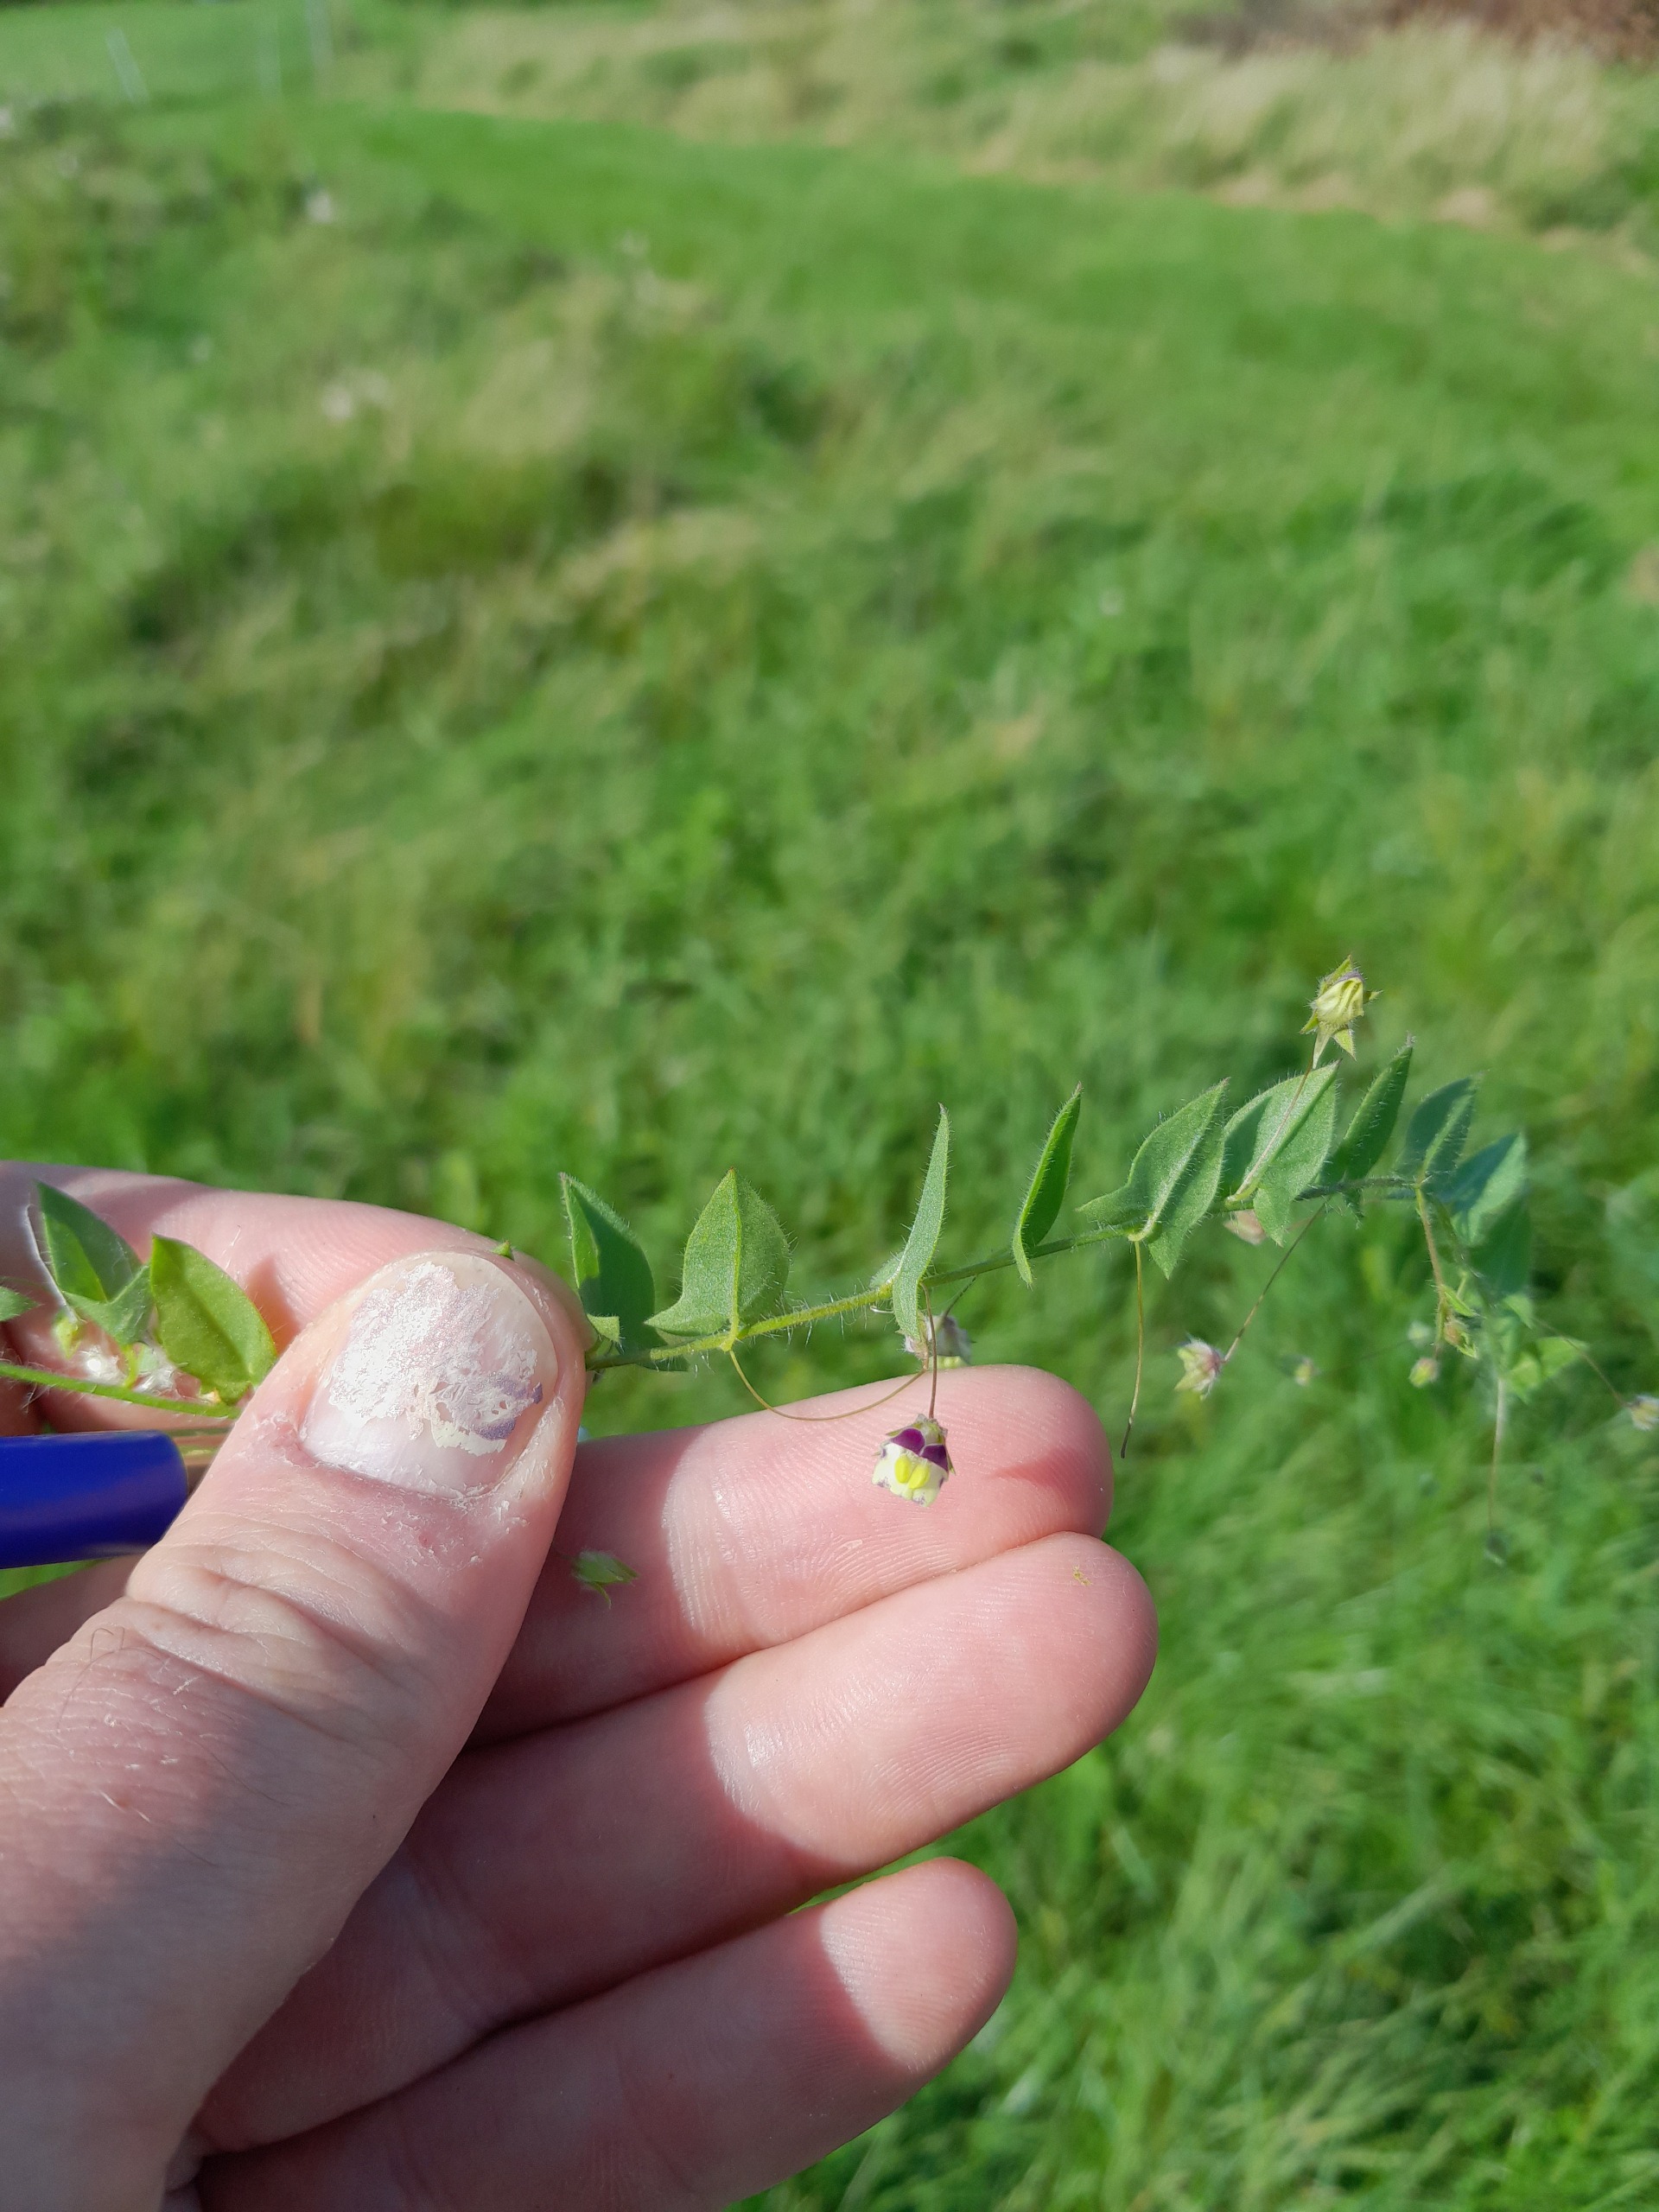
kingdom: Plantae
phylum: Tracheophyta
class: Magnoliopsida
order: Lamiales
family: Plantaginaceae
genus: Kickxia
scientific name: Kickxia elatine
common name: Spydbladet torskemund
